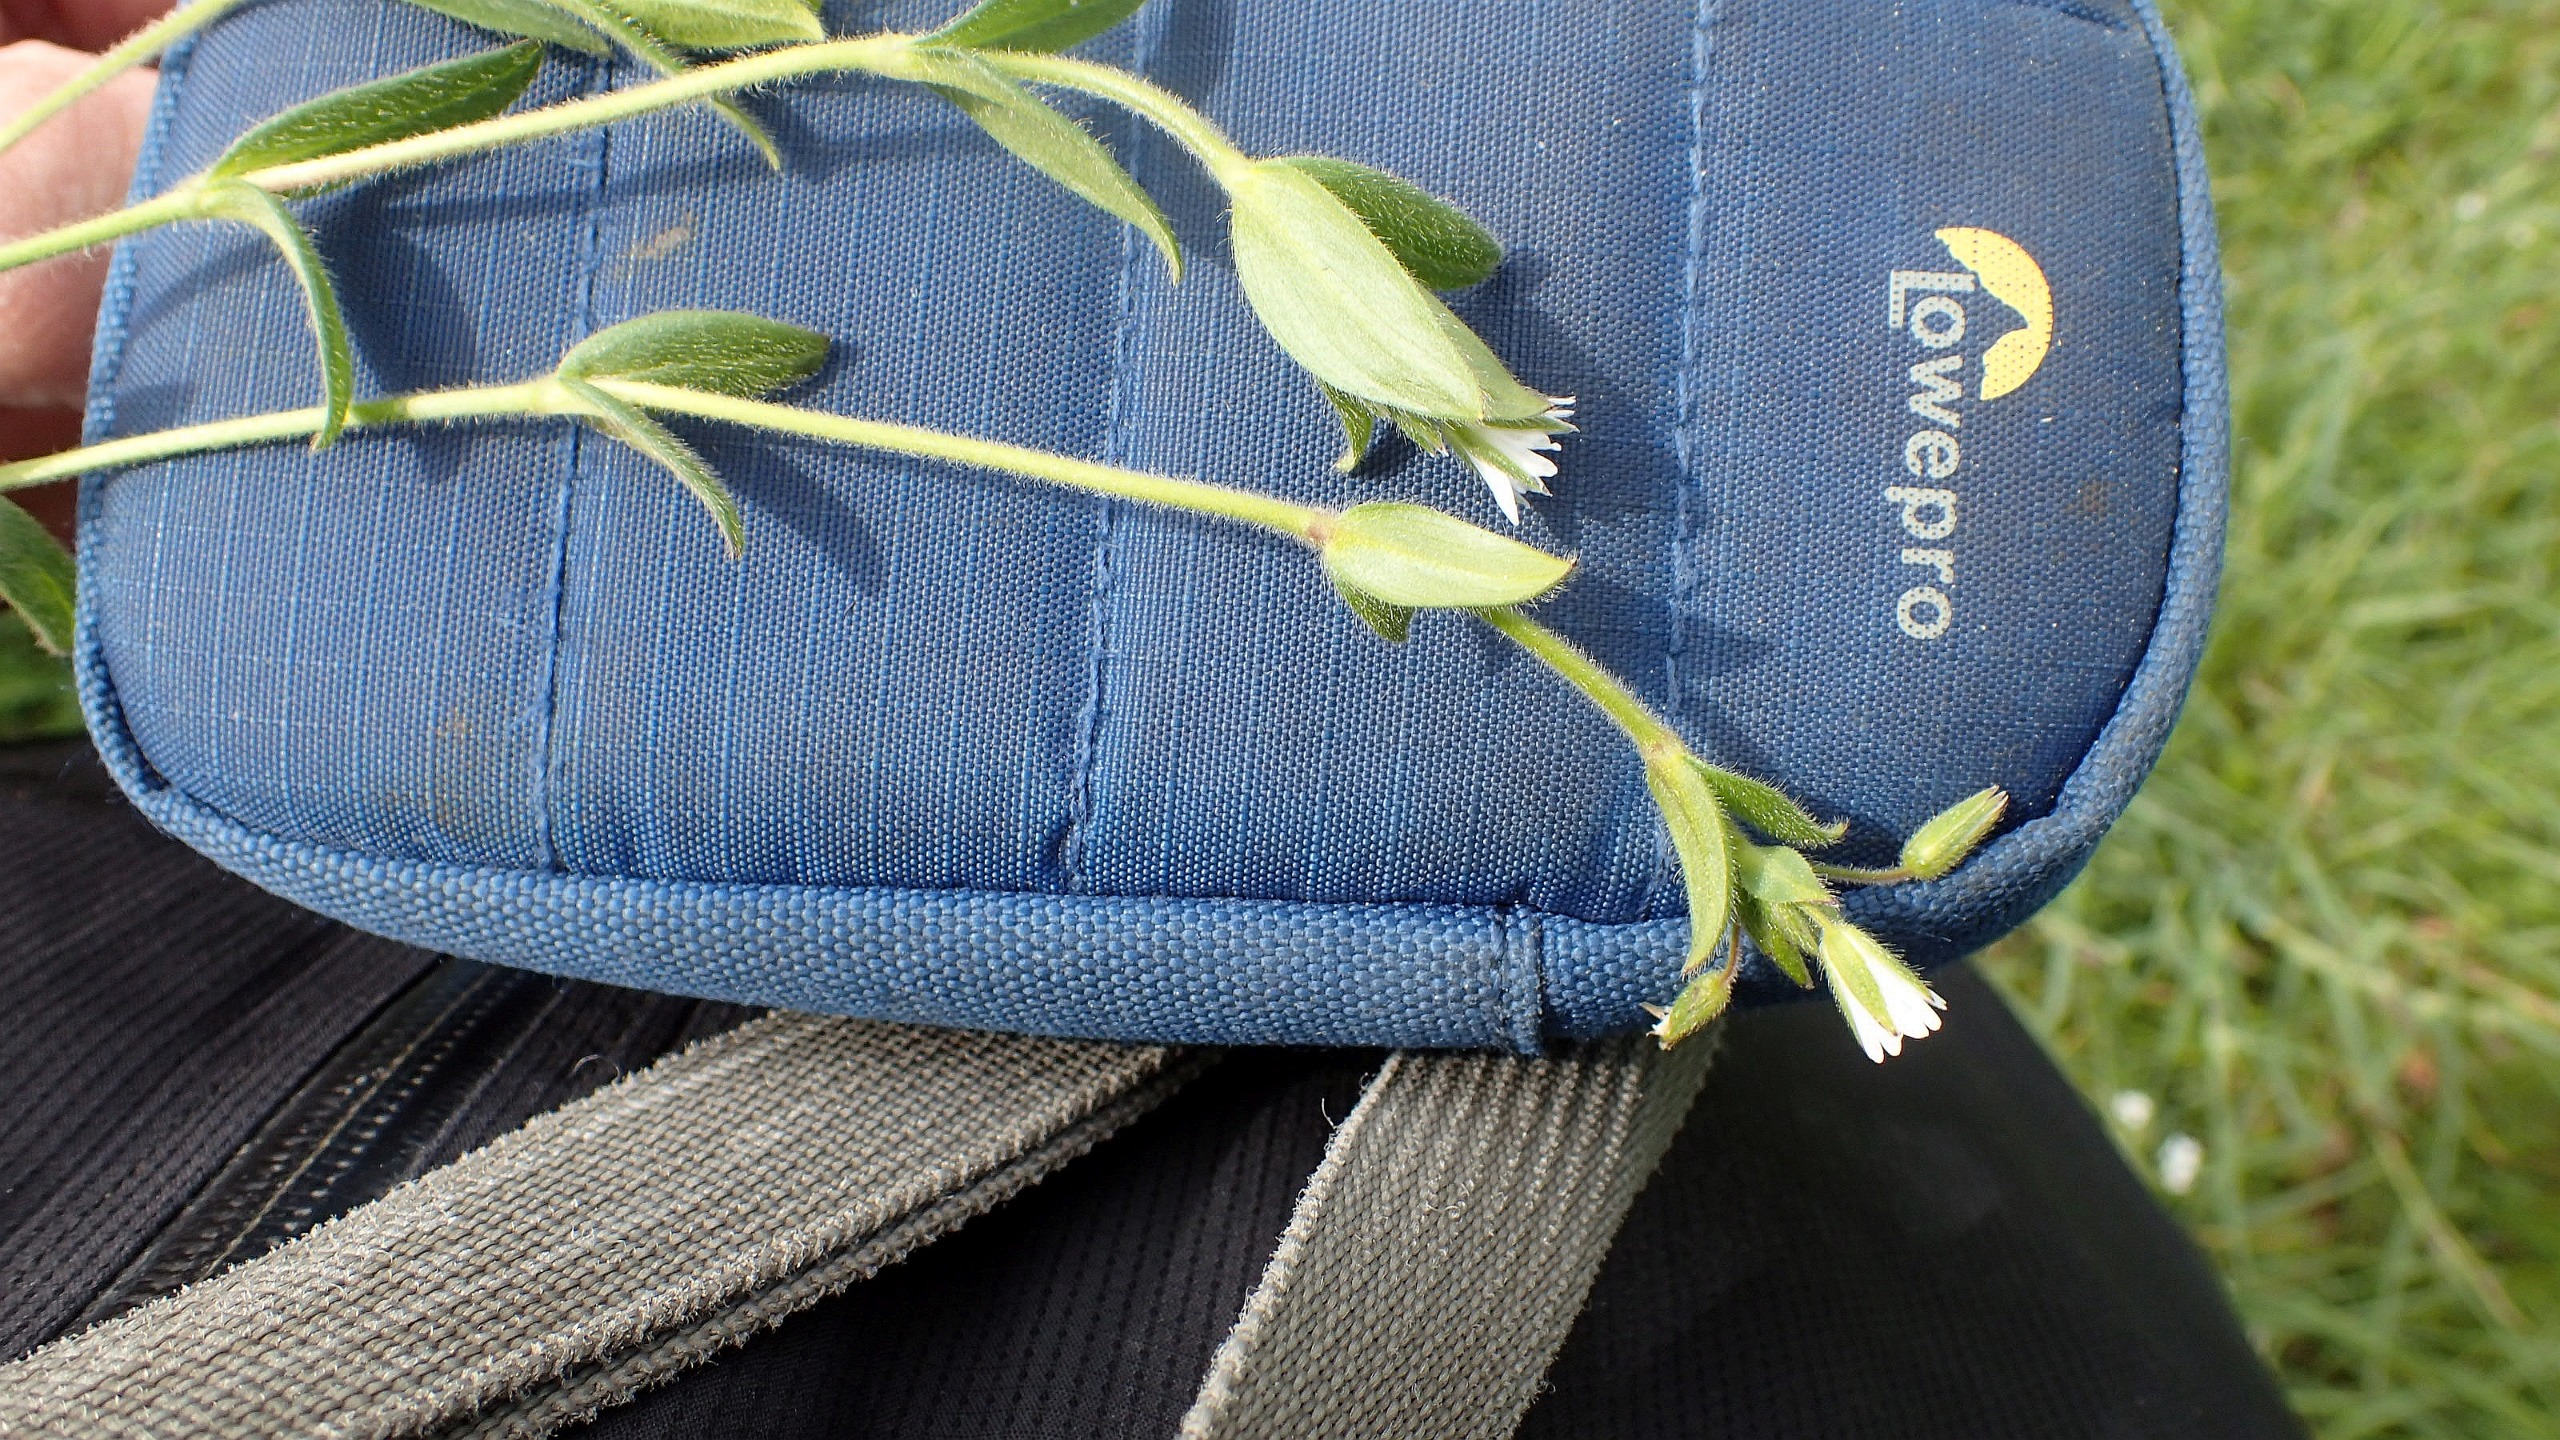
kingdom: Plantae
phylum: Tracheophyta
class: Magnoliopsida
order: Caryophyllales
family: Caryophyllaceae
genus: Cerastium
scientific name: Cerastium fontanum
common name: Almindelig hønsetarm
